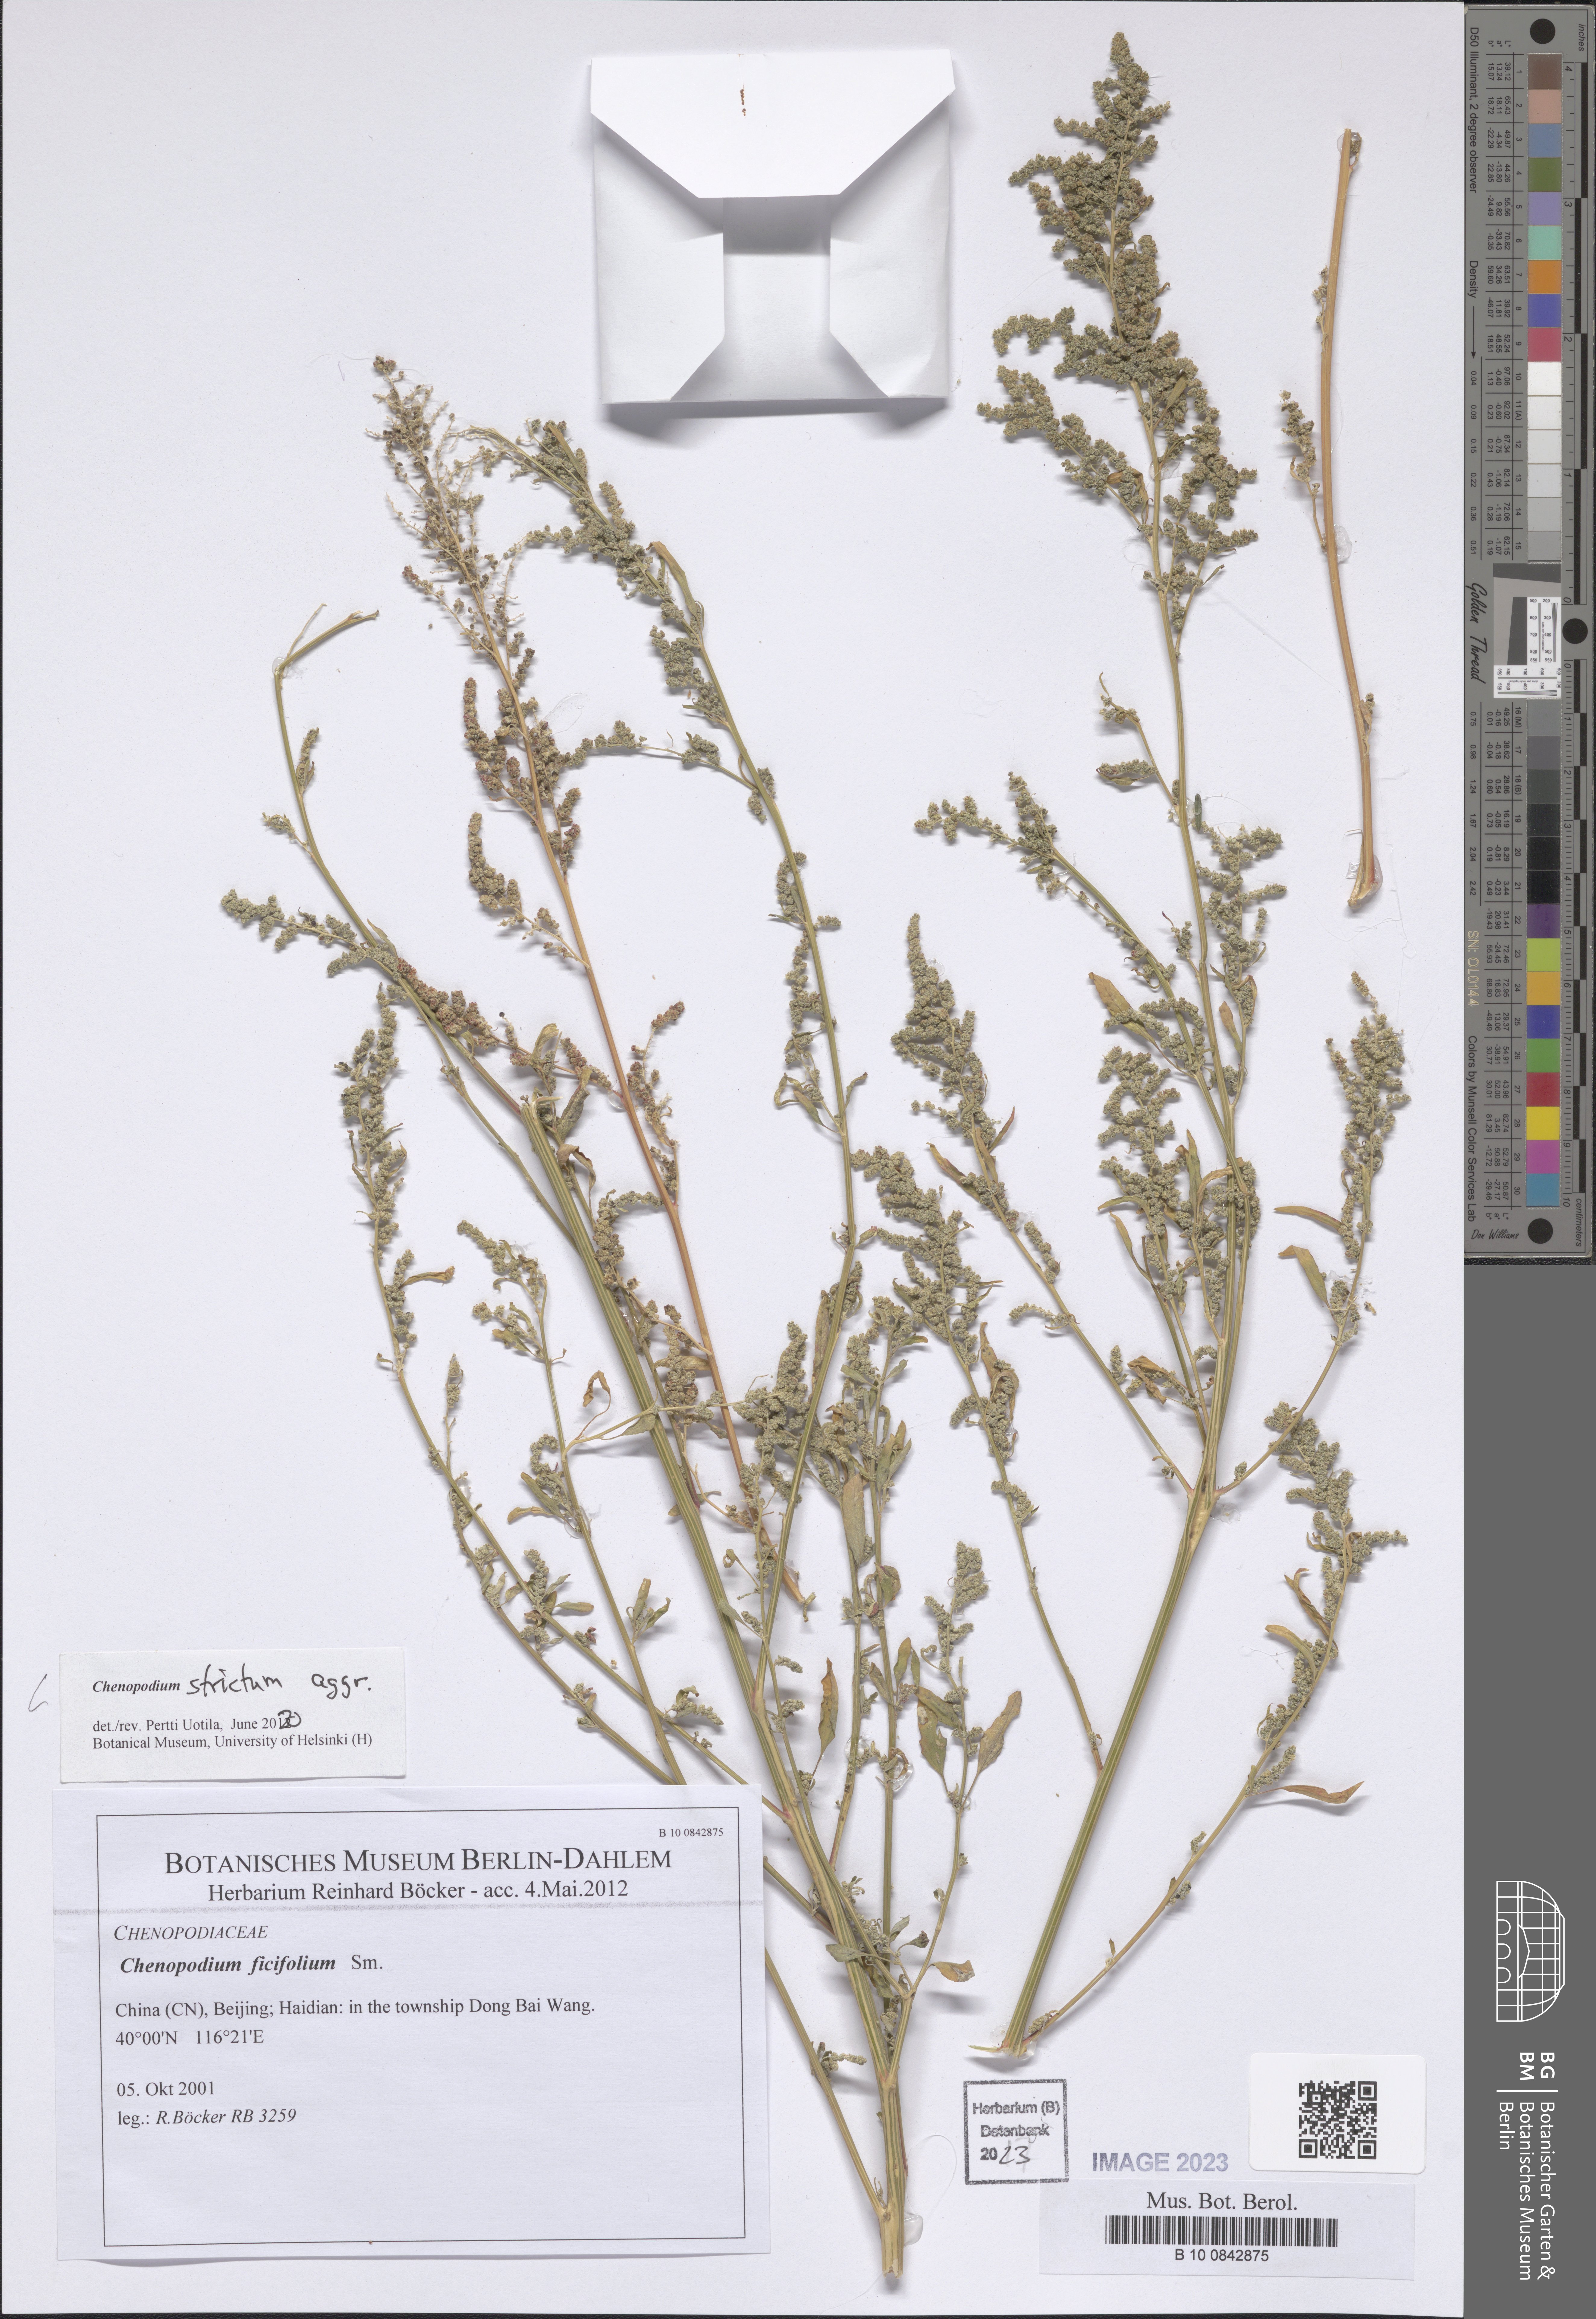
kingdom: Plantae
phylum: Tracheophyta
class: Magnoliopsida
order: Caryophyllales
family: Amaranthaceae
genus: Chenopodium
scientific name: Chenopodium album
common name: Fat-hen
